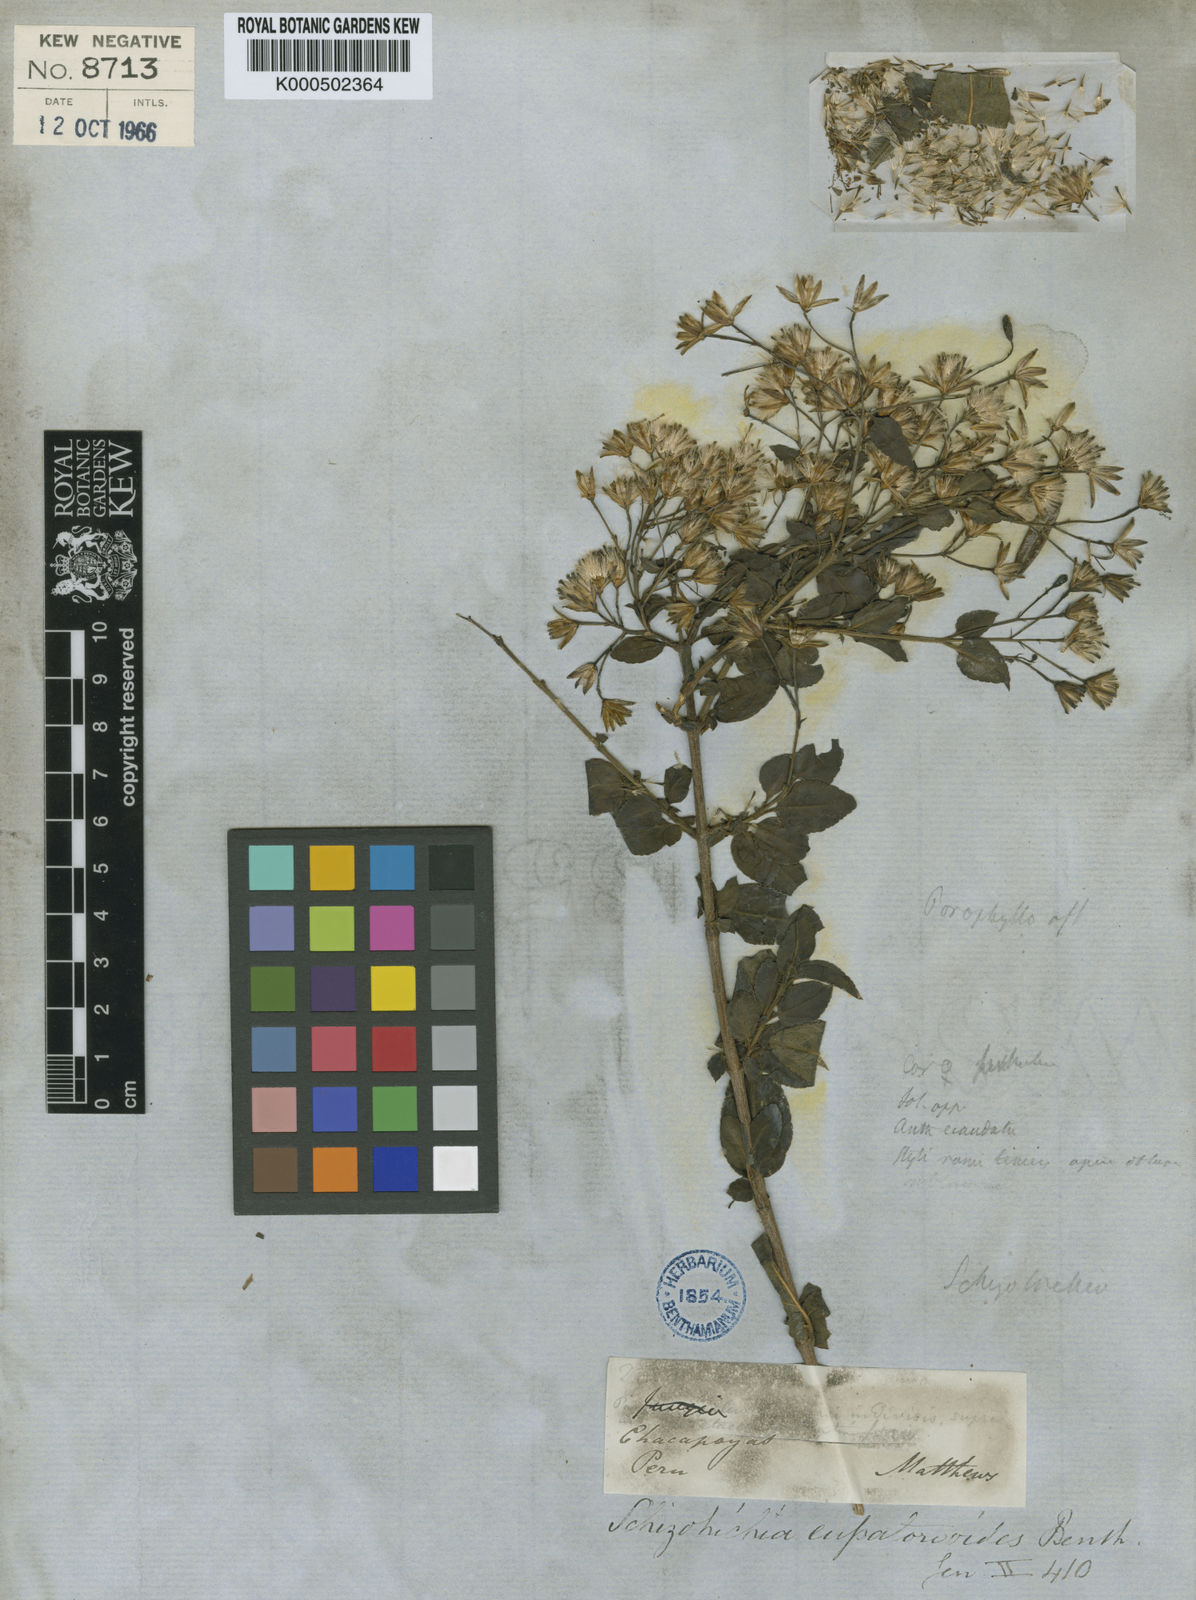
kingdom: Plantae
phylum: Tracheophyta
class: Magnoliopsida
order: Asterales
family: Asteraceae
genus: Schizotrichia
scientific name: Schizotrichia eupatorioides
